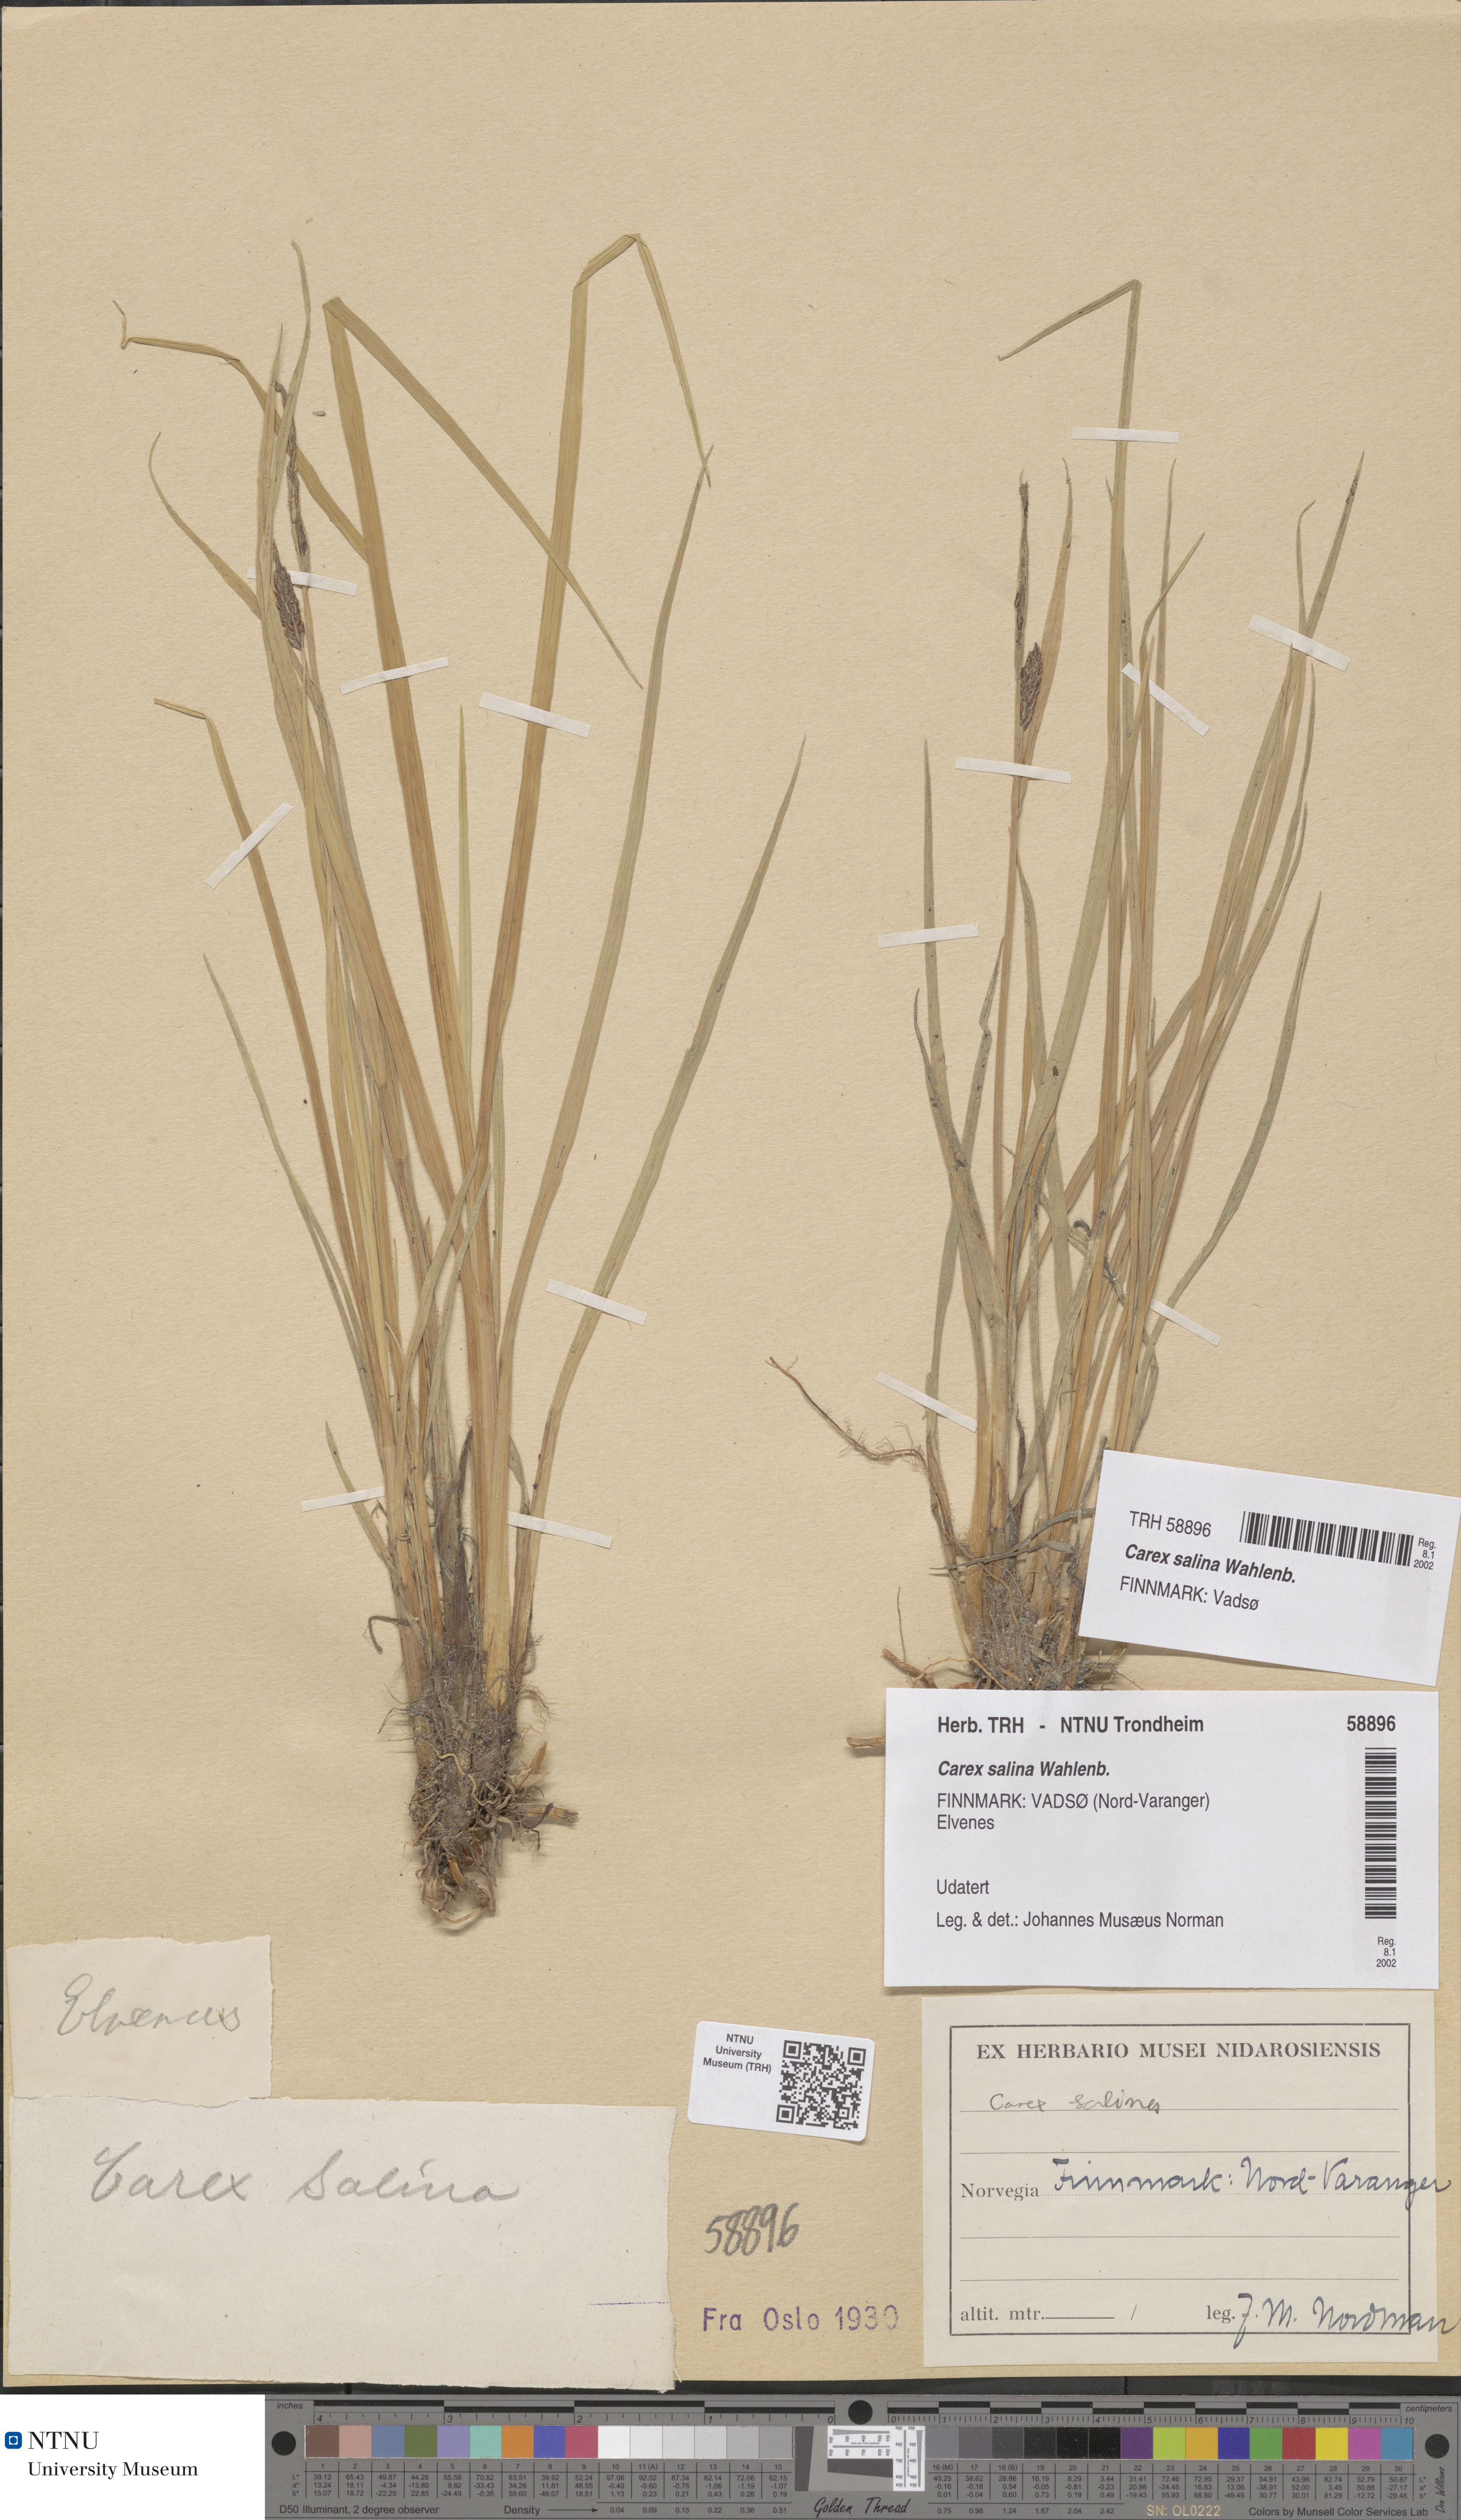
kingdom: Plantae
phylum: Tracheophyta
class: Liliopsida
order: Poales
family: Cyperaceae
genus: Carex
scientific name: Carex salina
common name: Saltmarsh sedge
